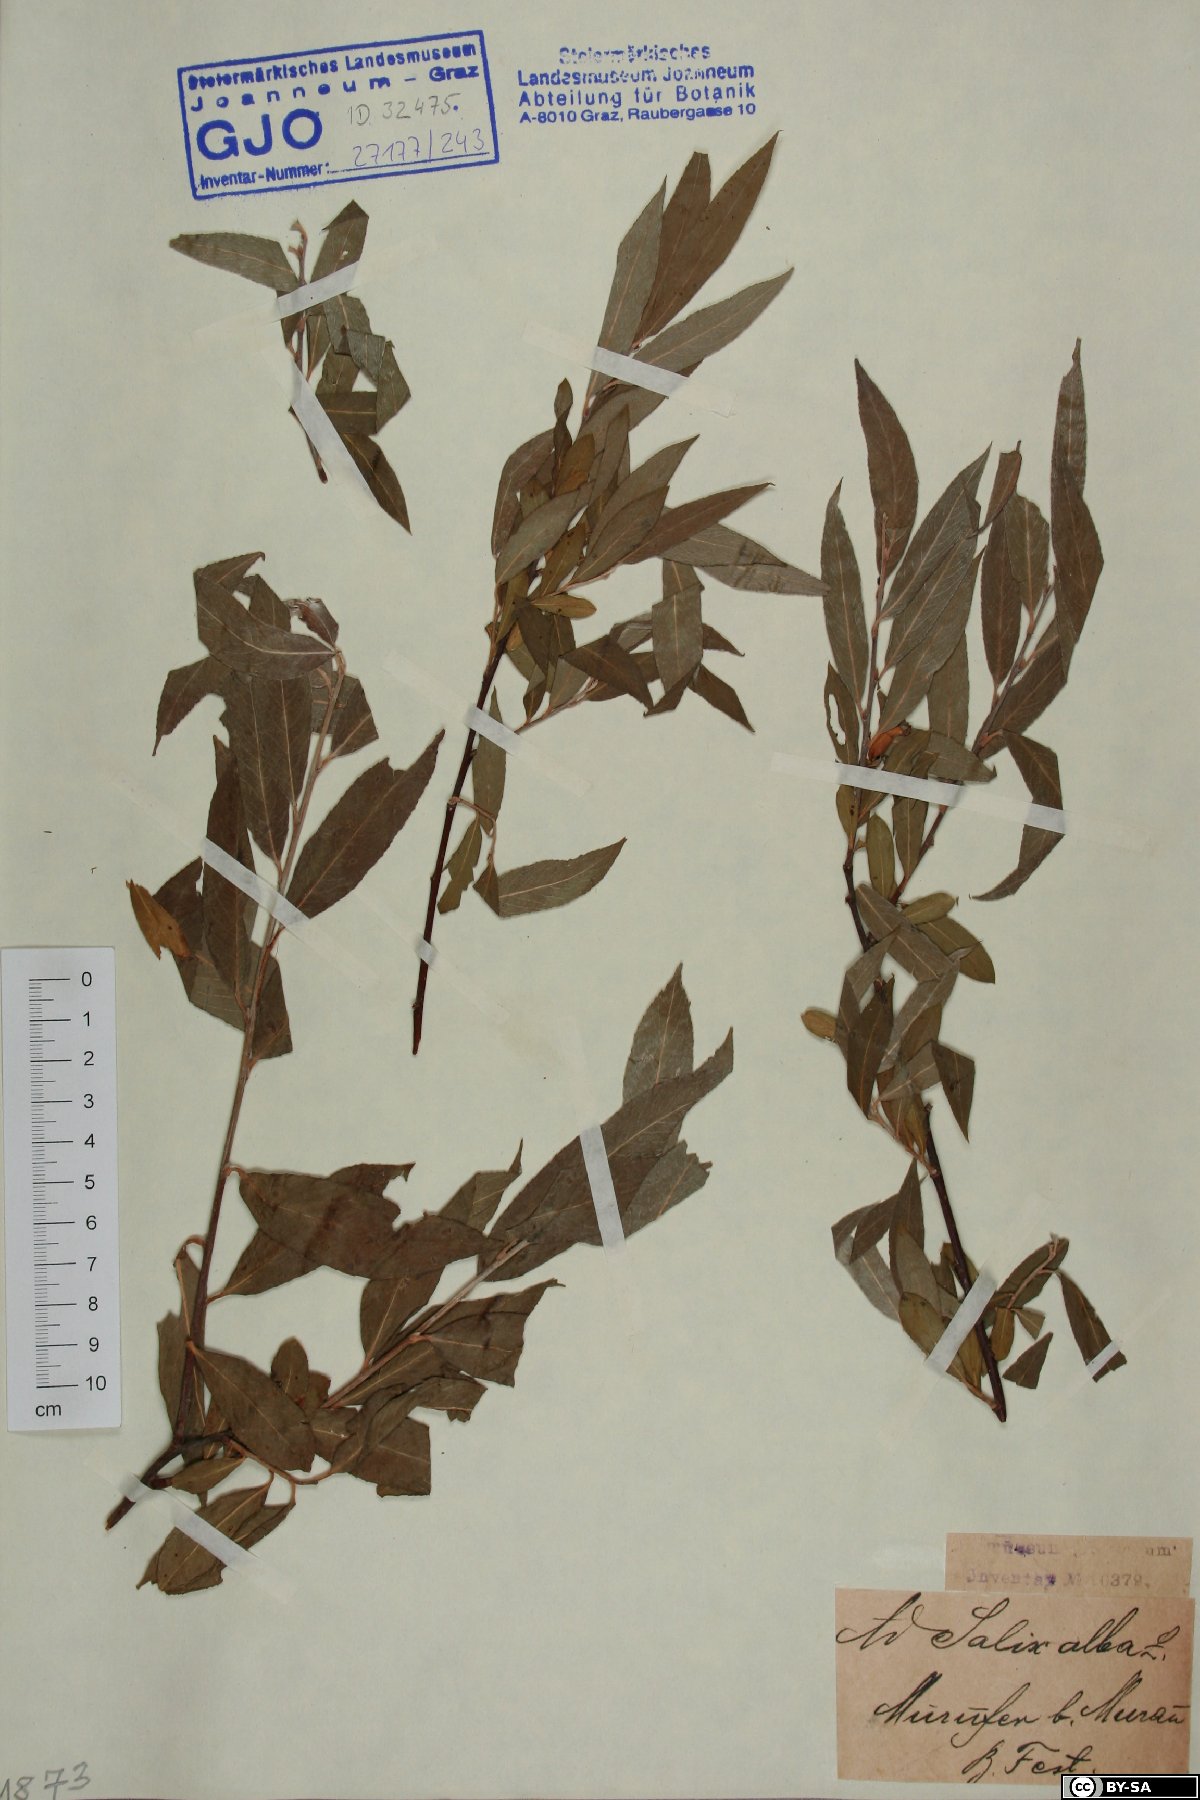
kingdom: Plantae
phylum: Tracheophyta
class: Magnoliopsida
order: Malpighiales
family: Salicaceae
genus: Salix
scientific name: Salix alba
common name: White willow
